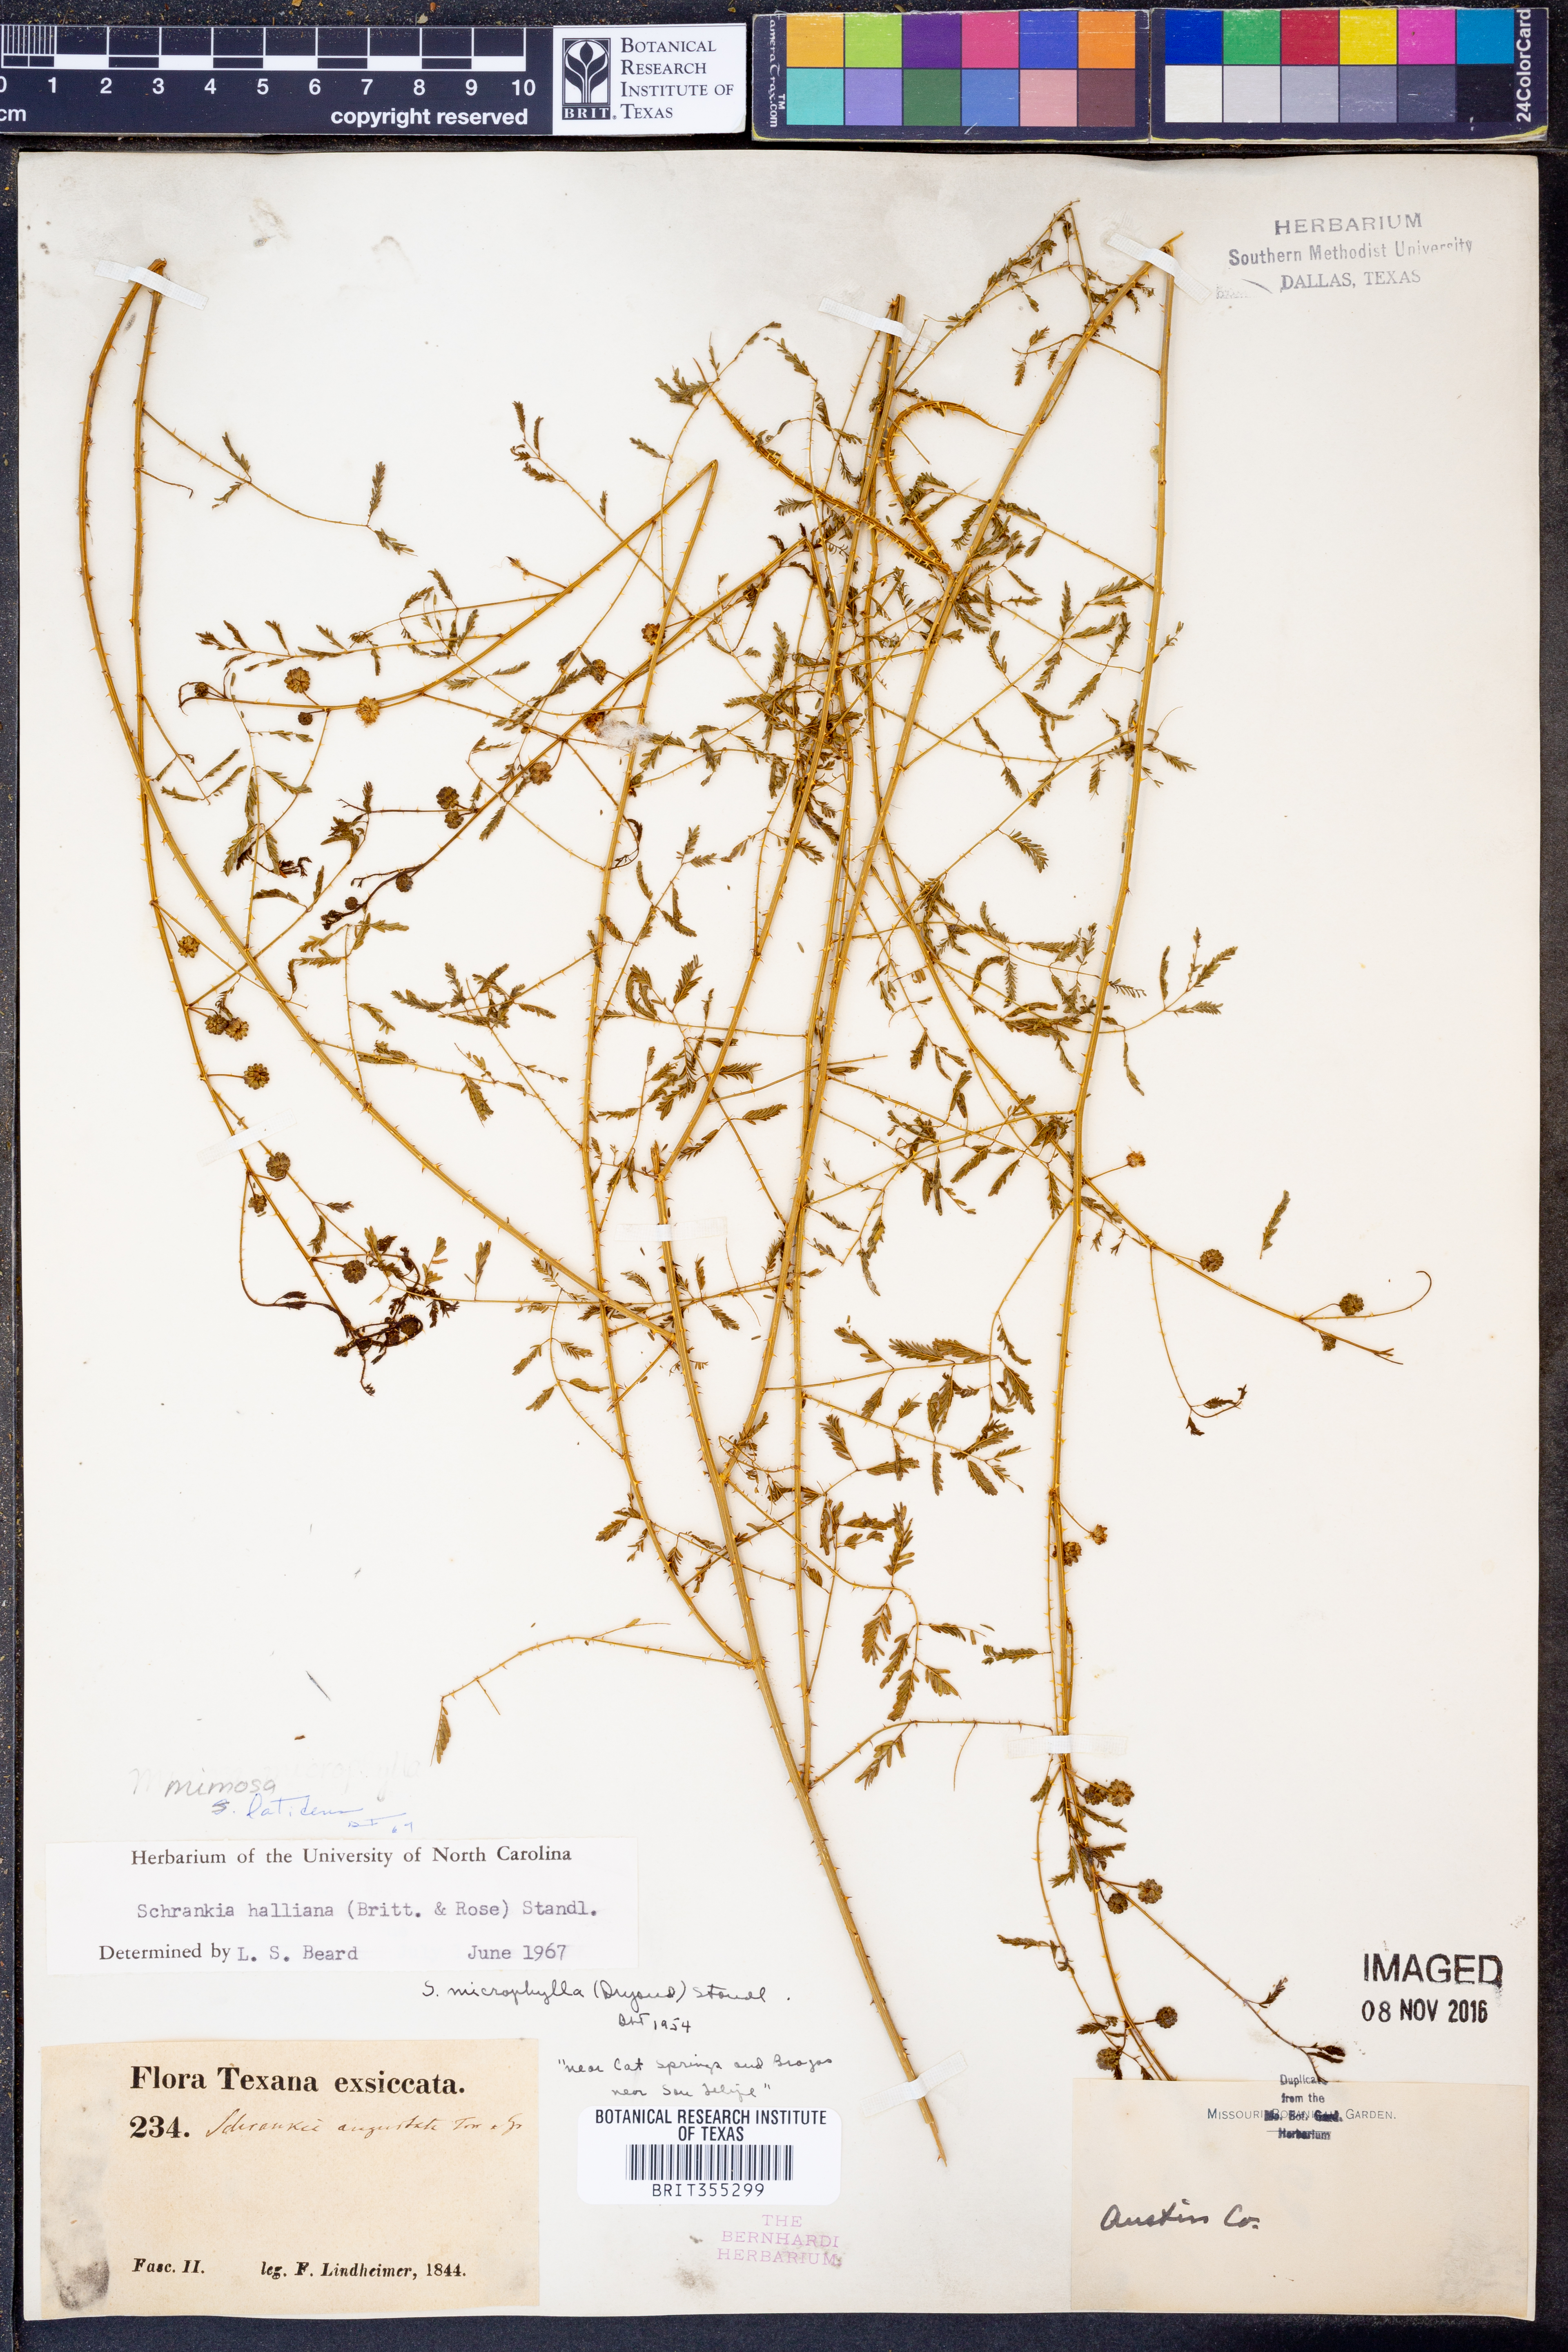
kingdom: Plantae
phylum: Tracheophyta
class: Magnoliopsida
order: Fabales
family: Fabaceae
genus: Mimosa
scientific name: Mimosa quadrivalvis
